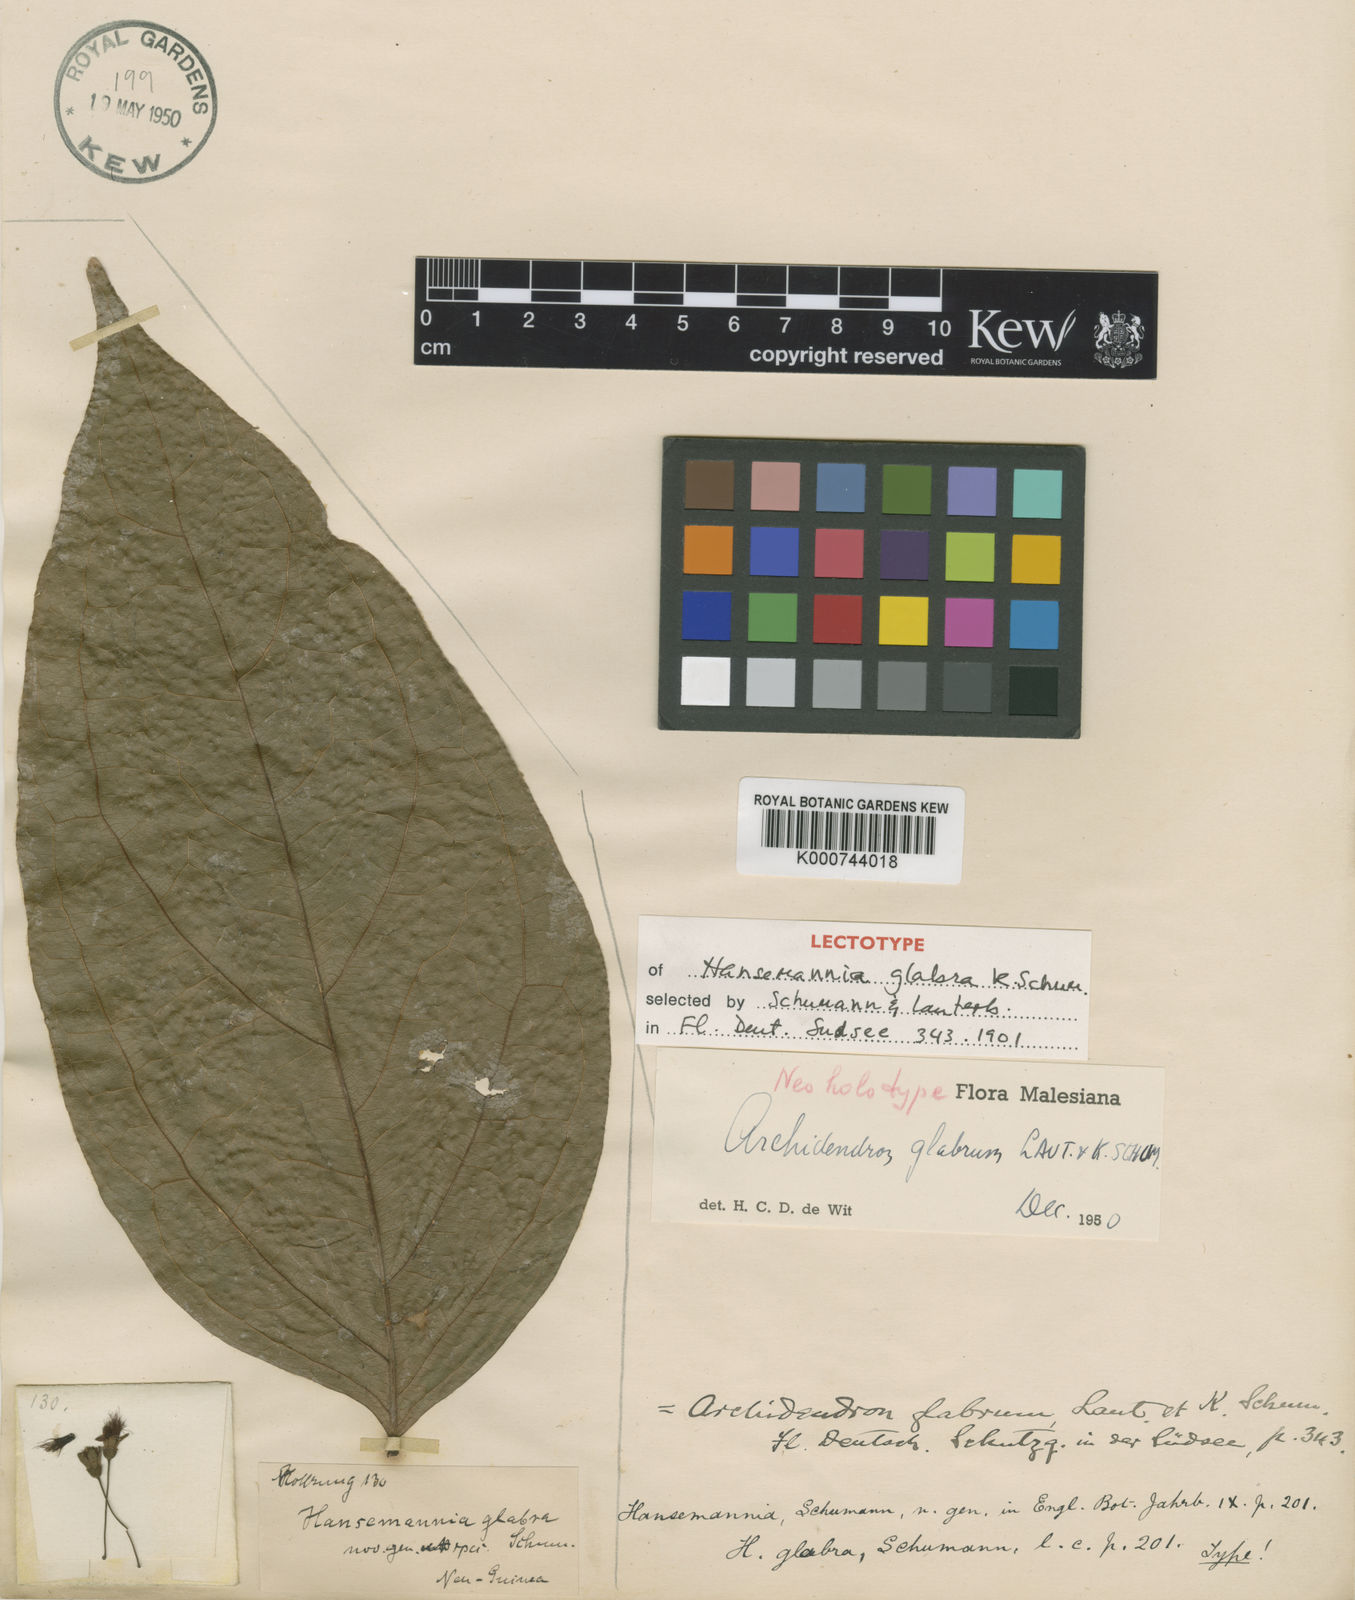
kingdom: Plantae
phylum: Tracheophyta
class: Magnoliopsida
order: Fabales
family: Fabaceae
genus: Archidendron
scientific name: Archidendron glabrum
